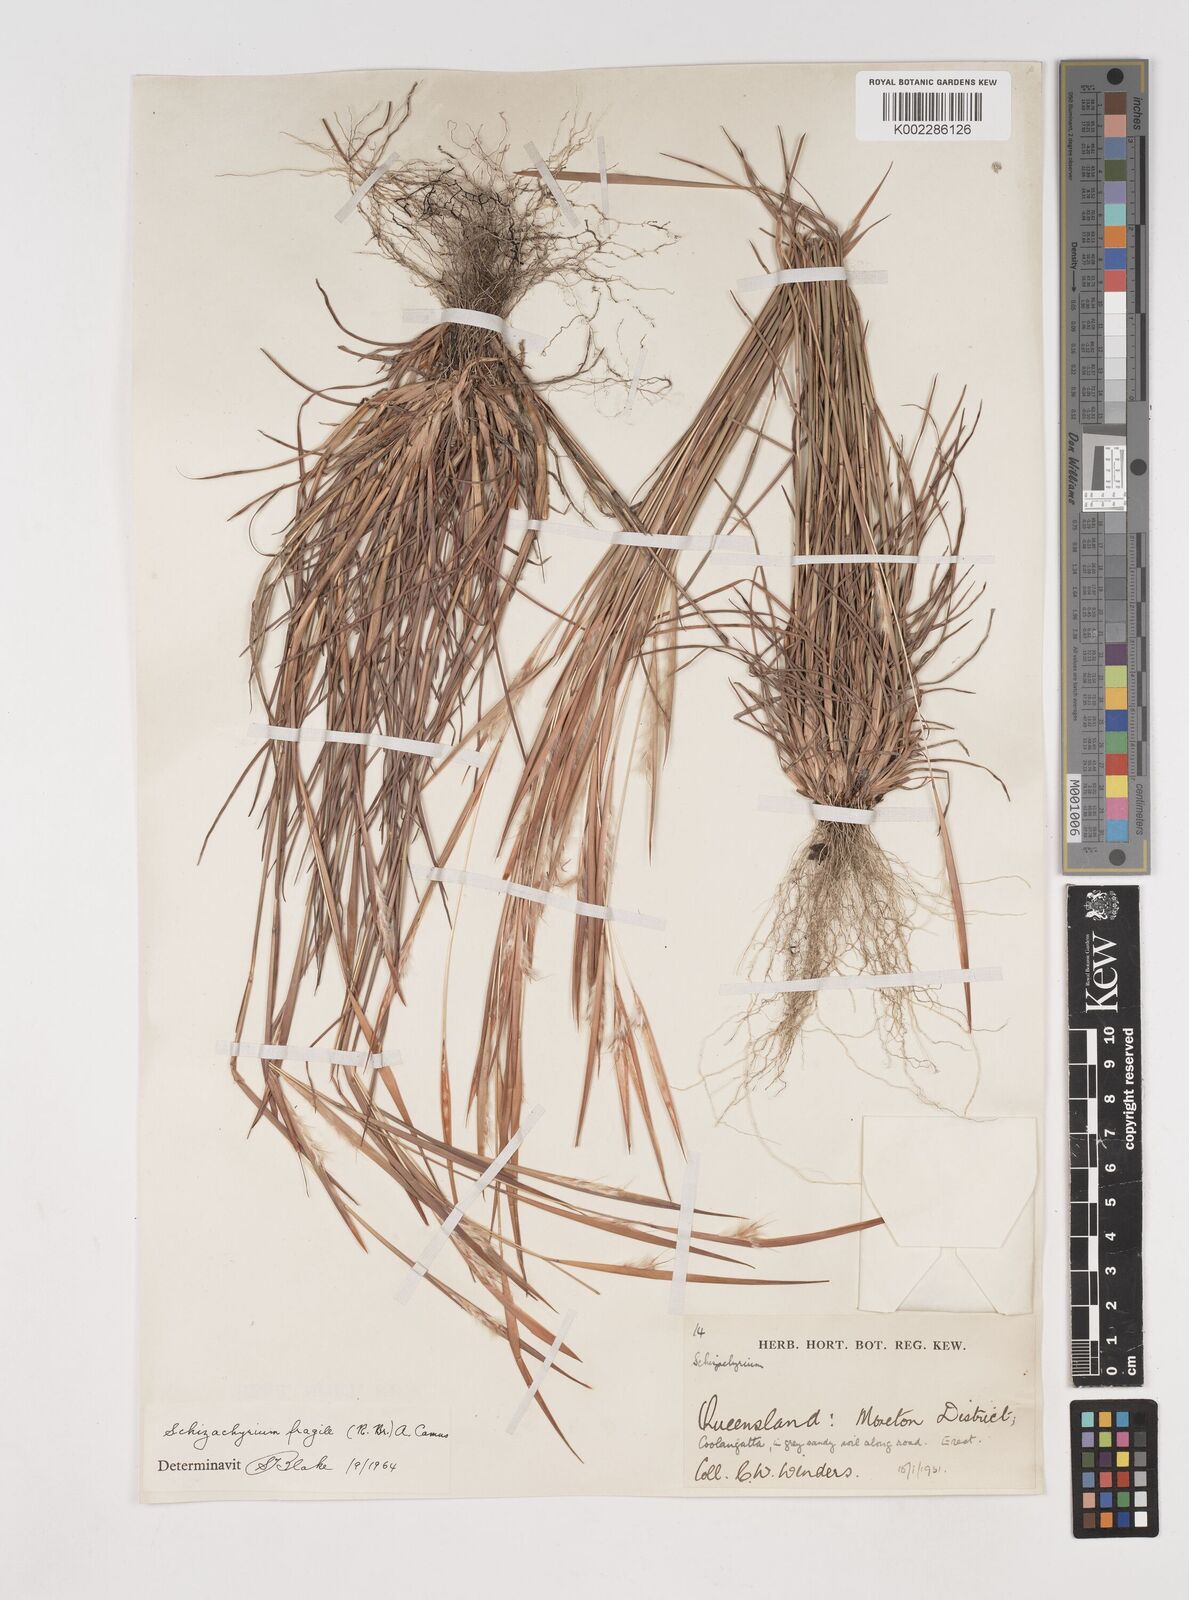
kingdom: Plantae
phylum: Tracheophyta
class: Liliopsida
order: Poales
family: Poaceae
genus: Schizachyrium
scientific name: Schizachyrium fragile
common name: Red spathe grass
